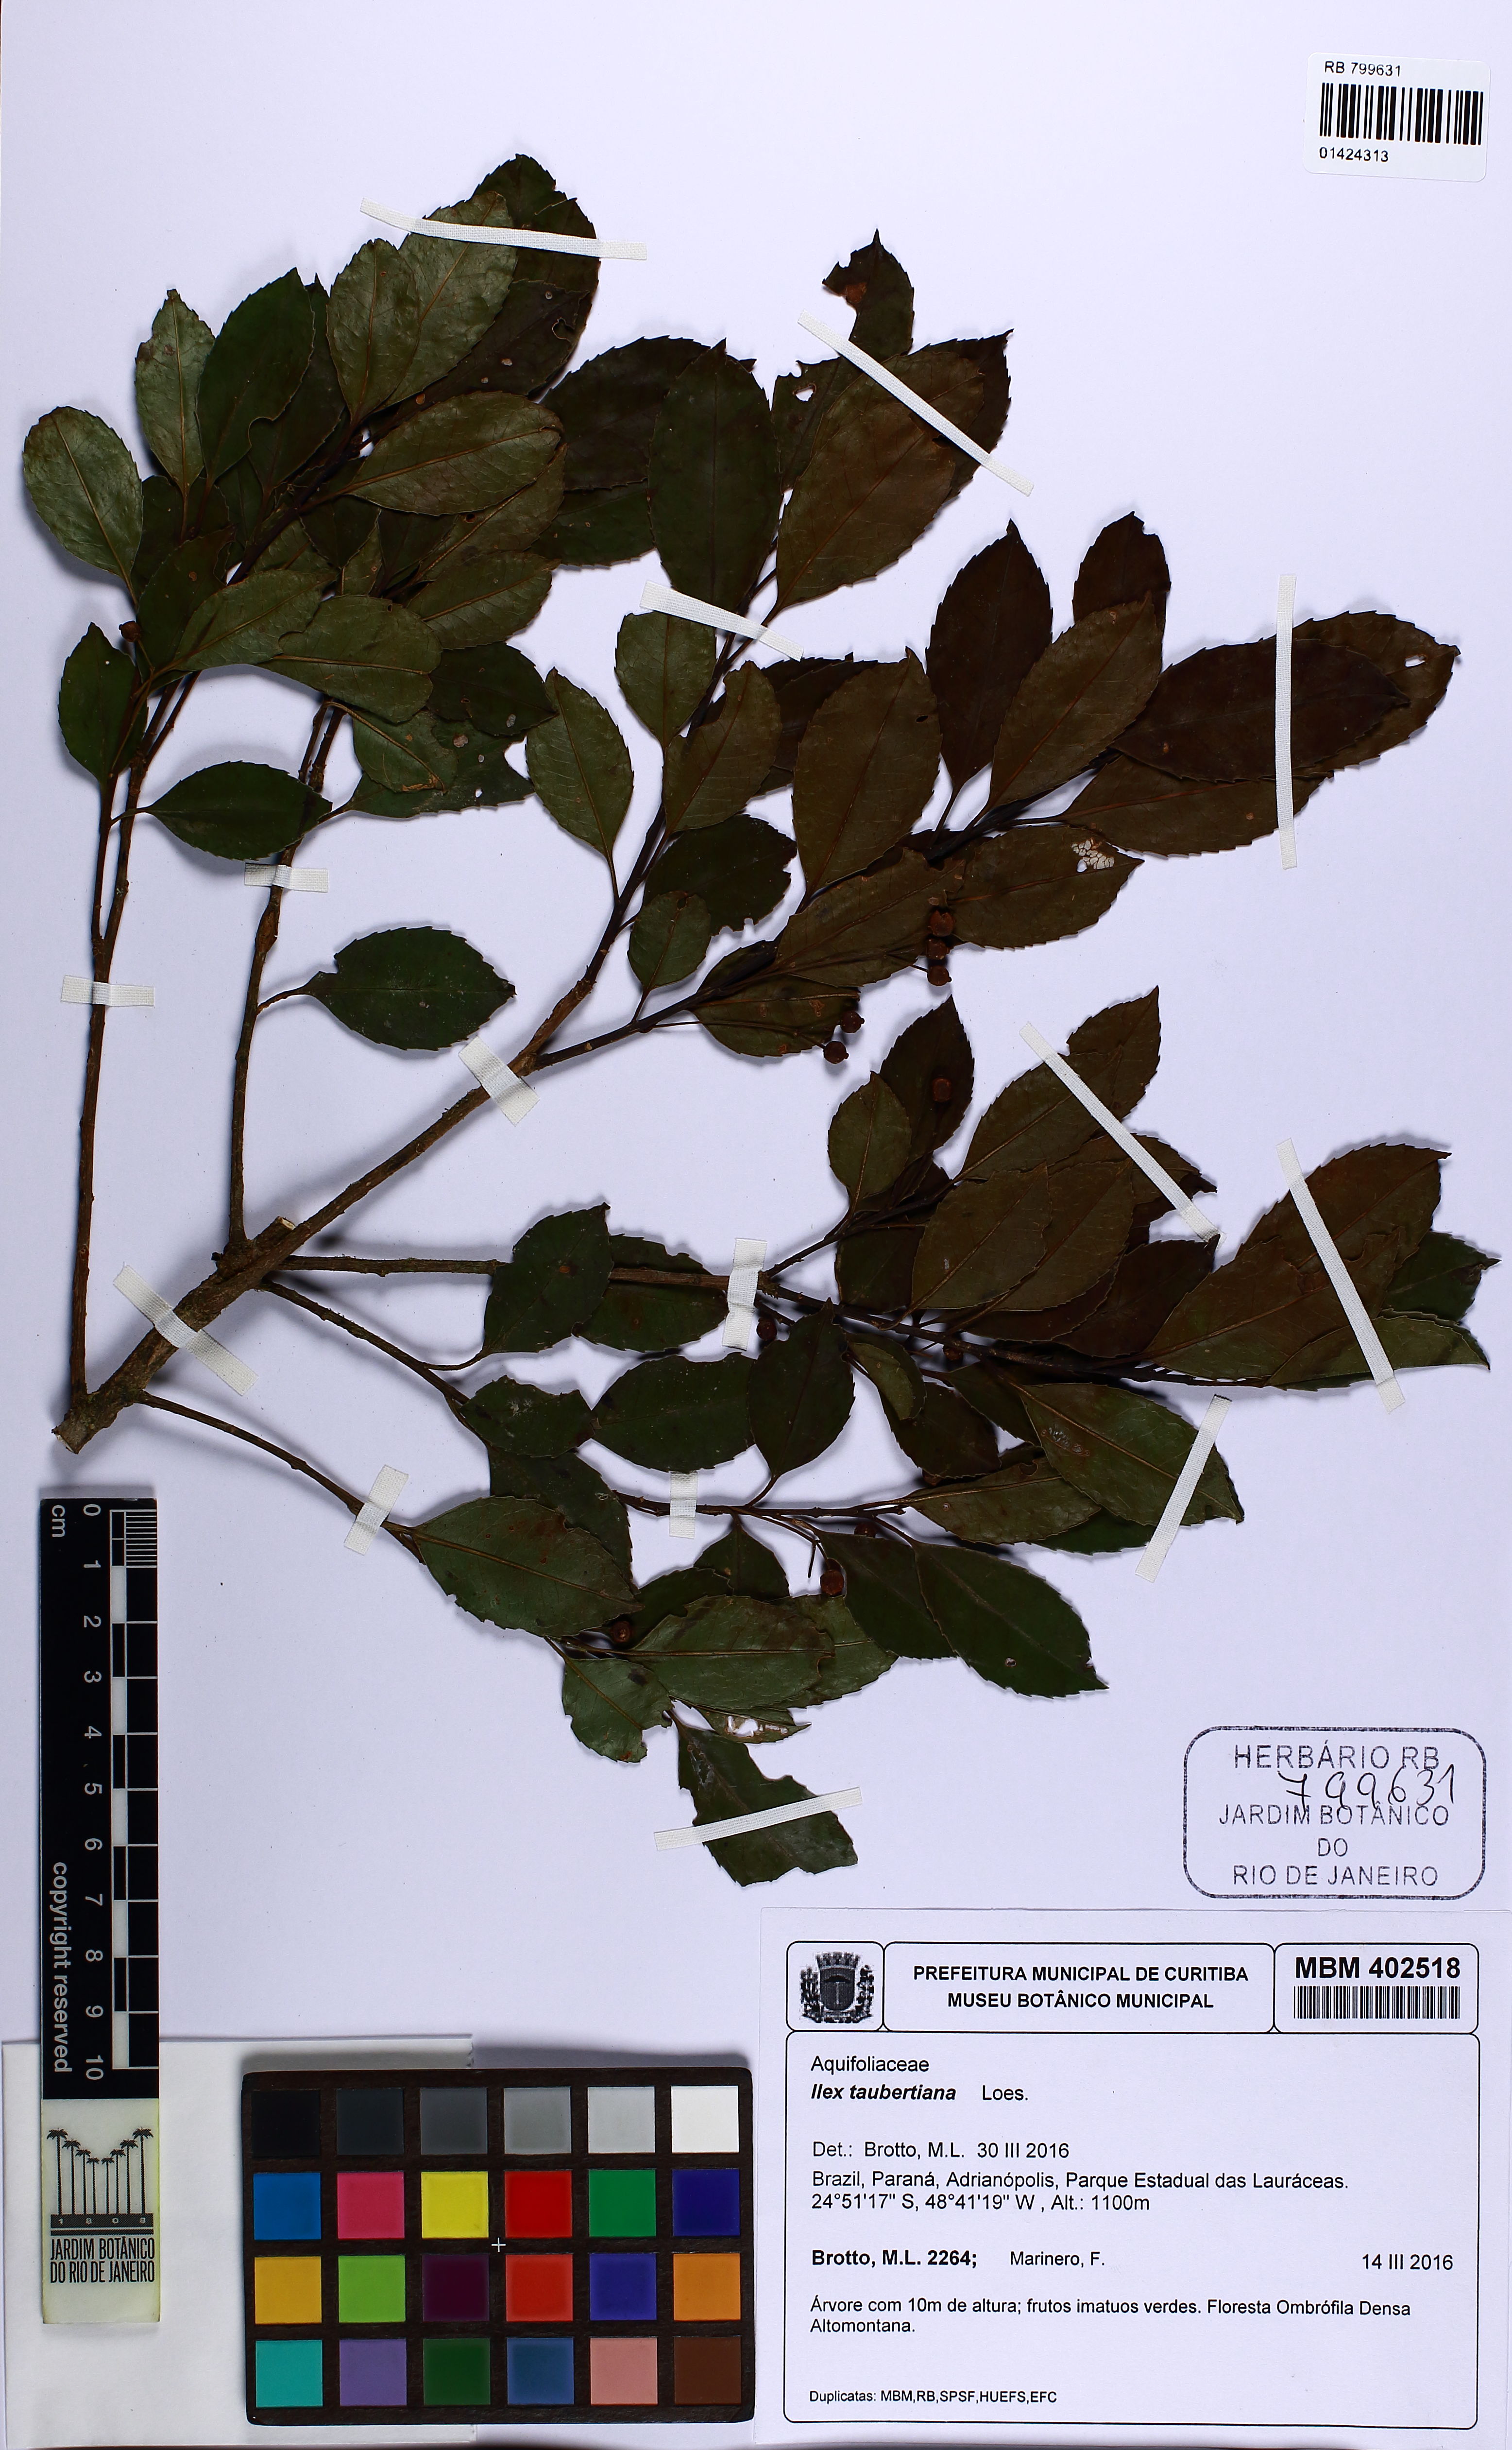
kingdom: Plantae
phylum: Tracheophyta
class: Magnoliopsida
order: Aquifoliales
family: Aquifoliaceae
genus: Ilex
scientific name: Ilex taubertiana
